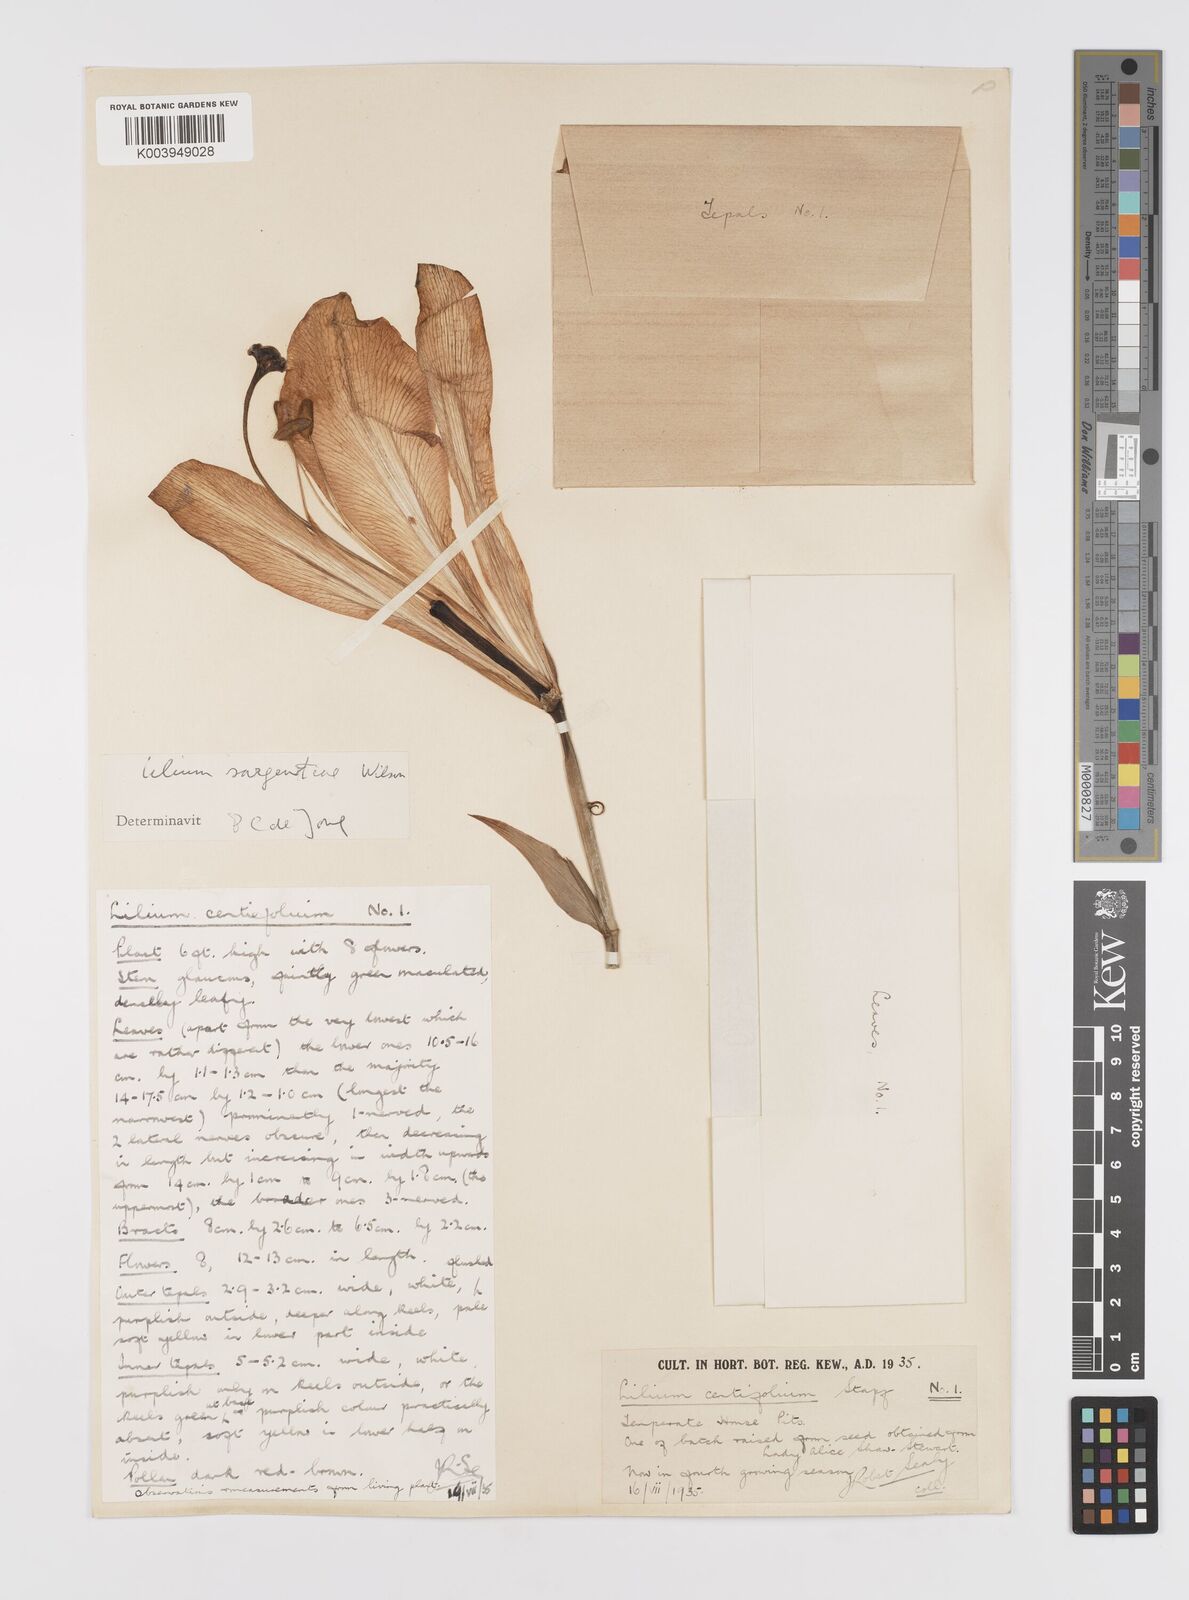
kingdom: Plantae
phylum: Tracheophyta
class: Liliopsida
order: Liliales
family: Liliaceae
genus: Lilium
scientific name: Lilium sargentiae
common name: Sargent lily
